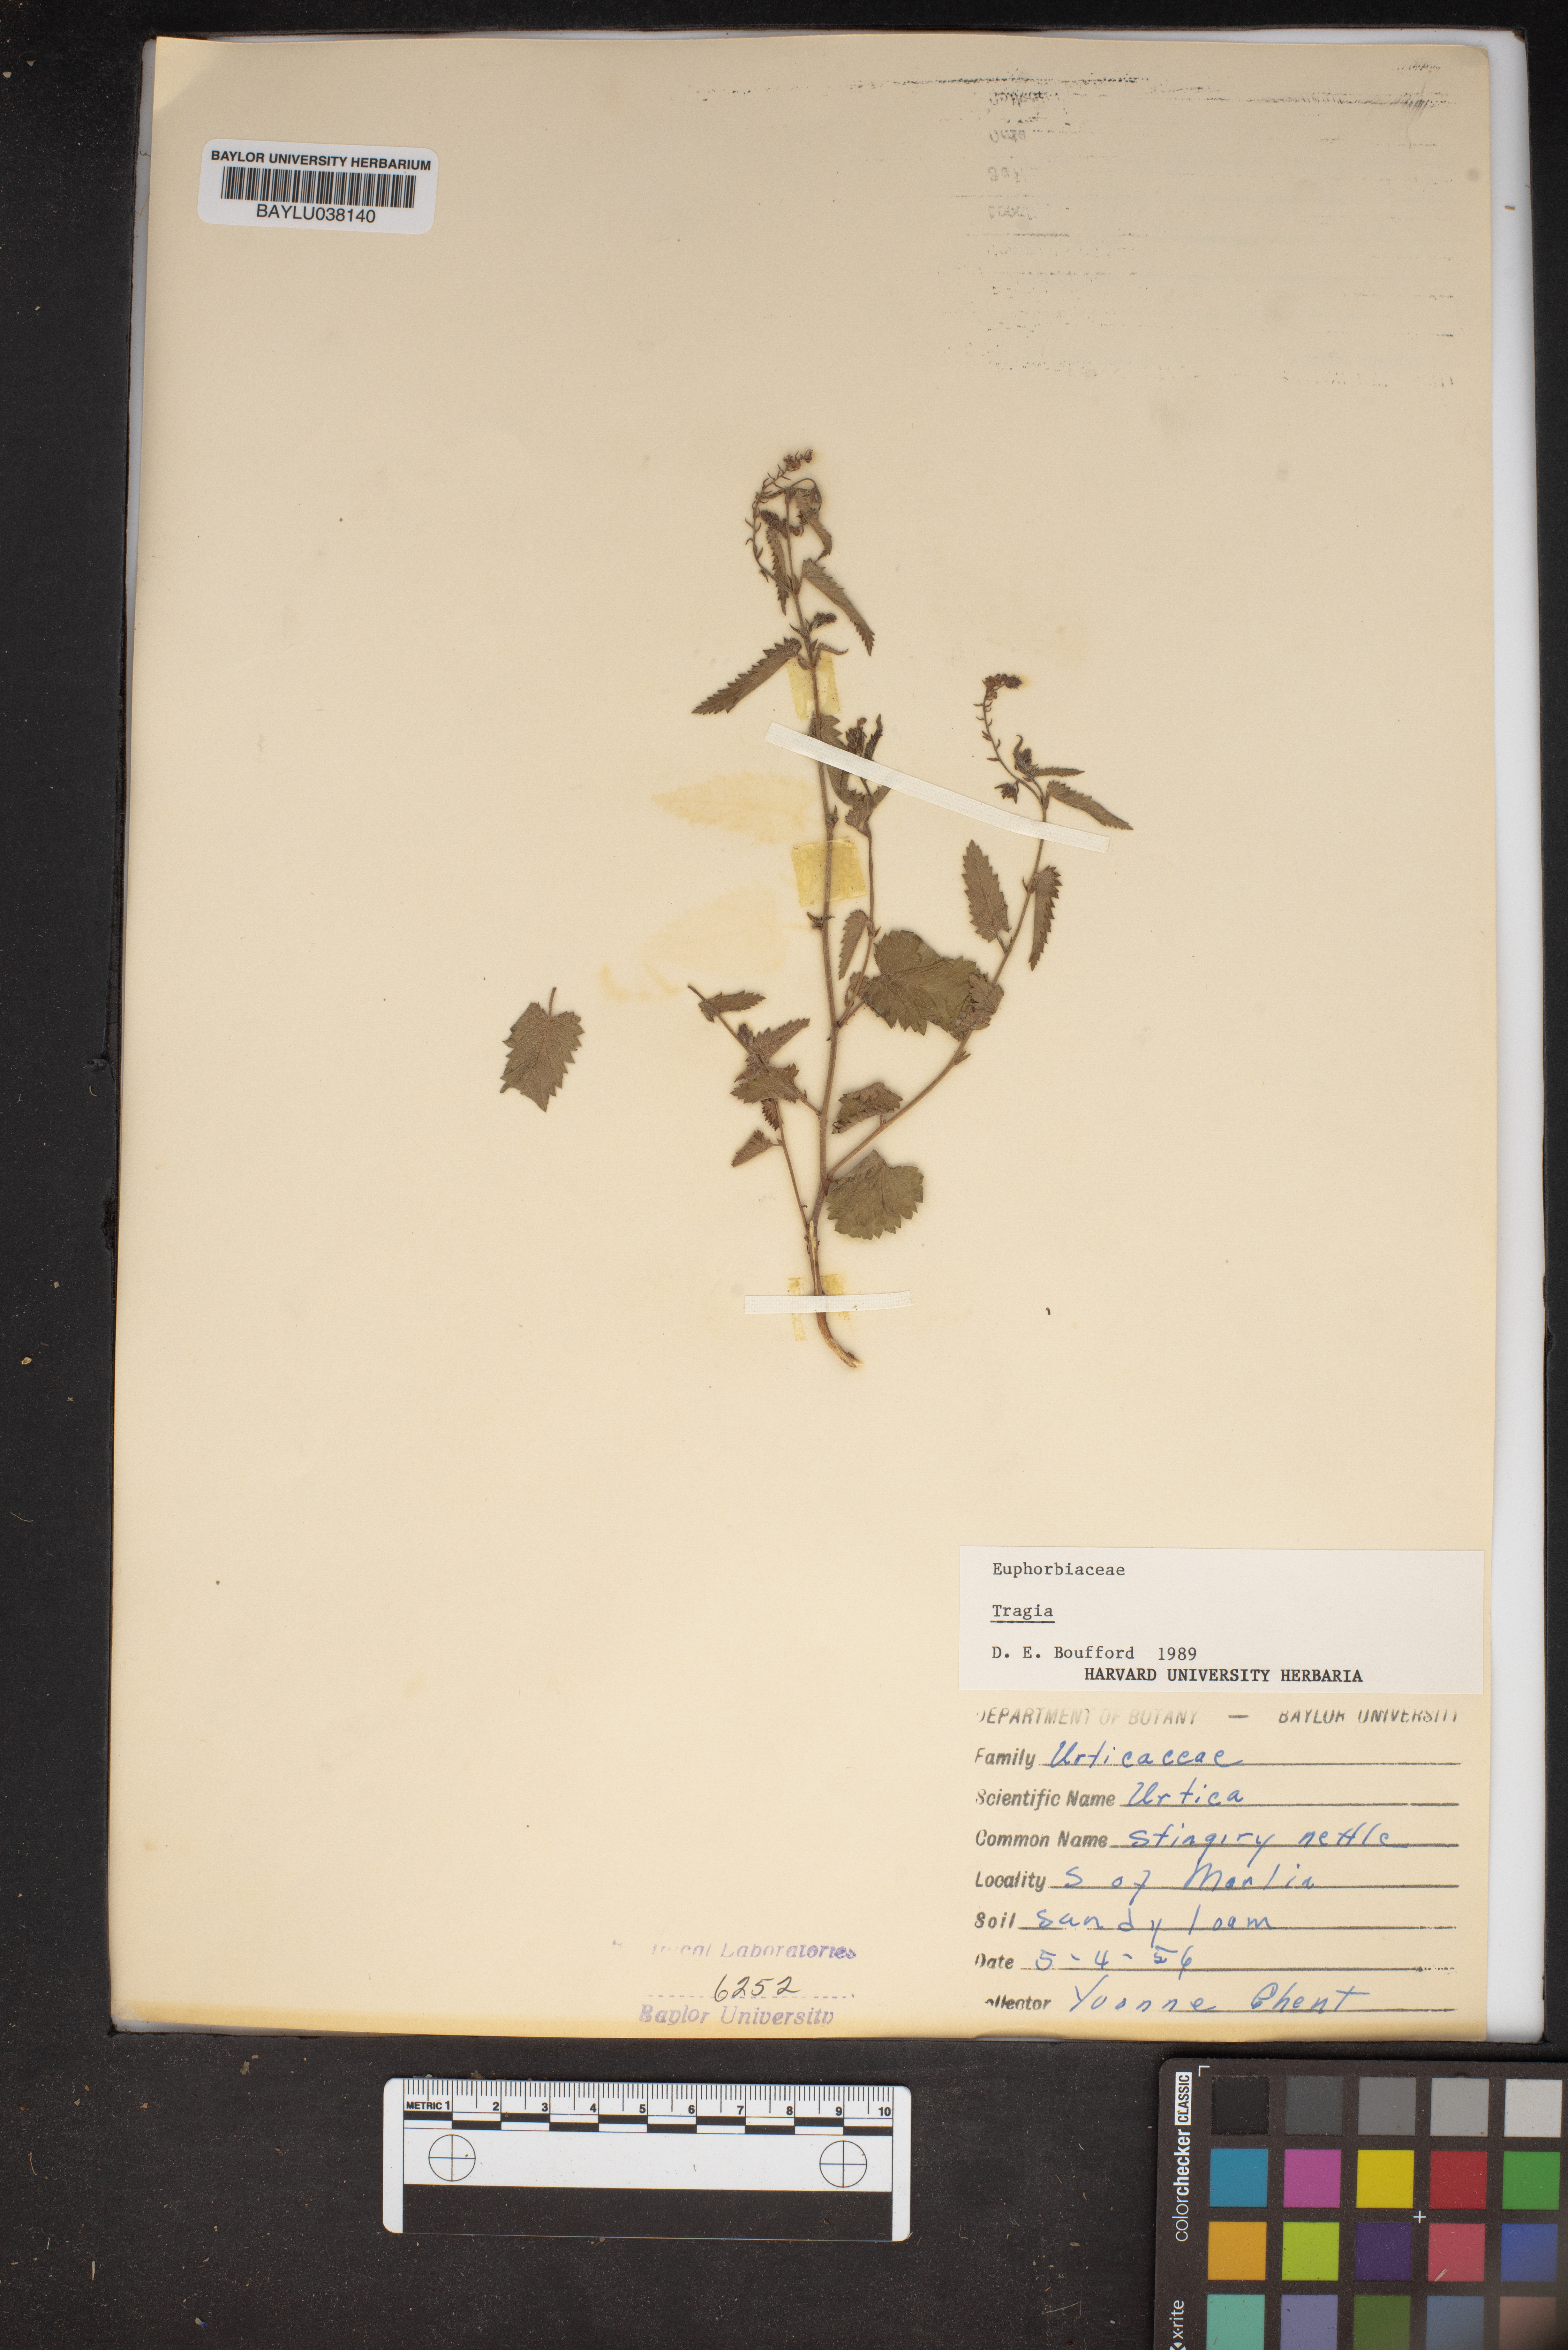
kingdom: Plantae
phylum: Tracheophyta
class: Magnoliopsida
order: Malpighiales
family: Euphorbiaceae
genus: Tragia
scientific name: Tragia
